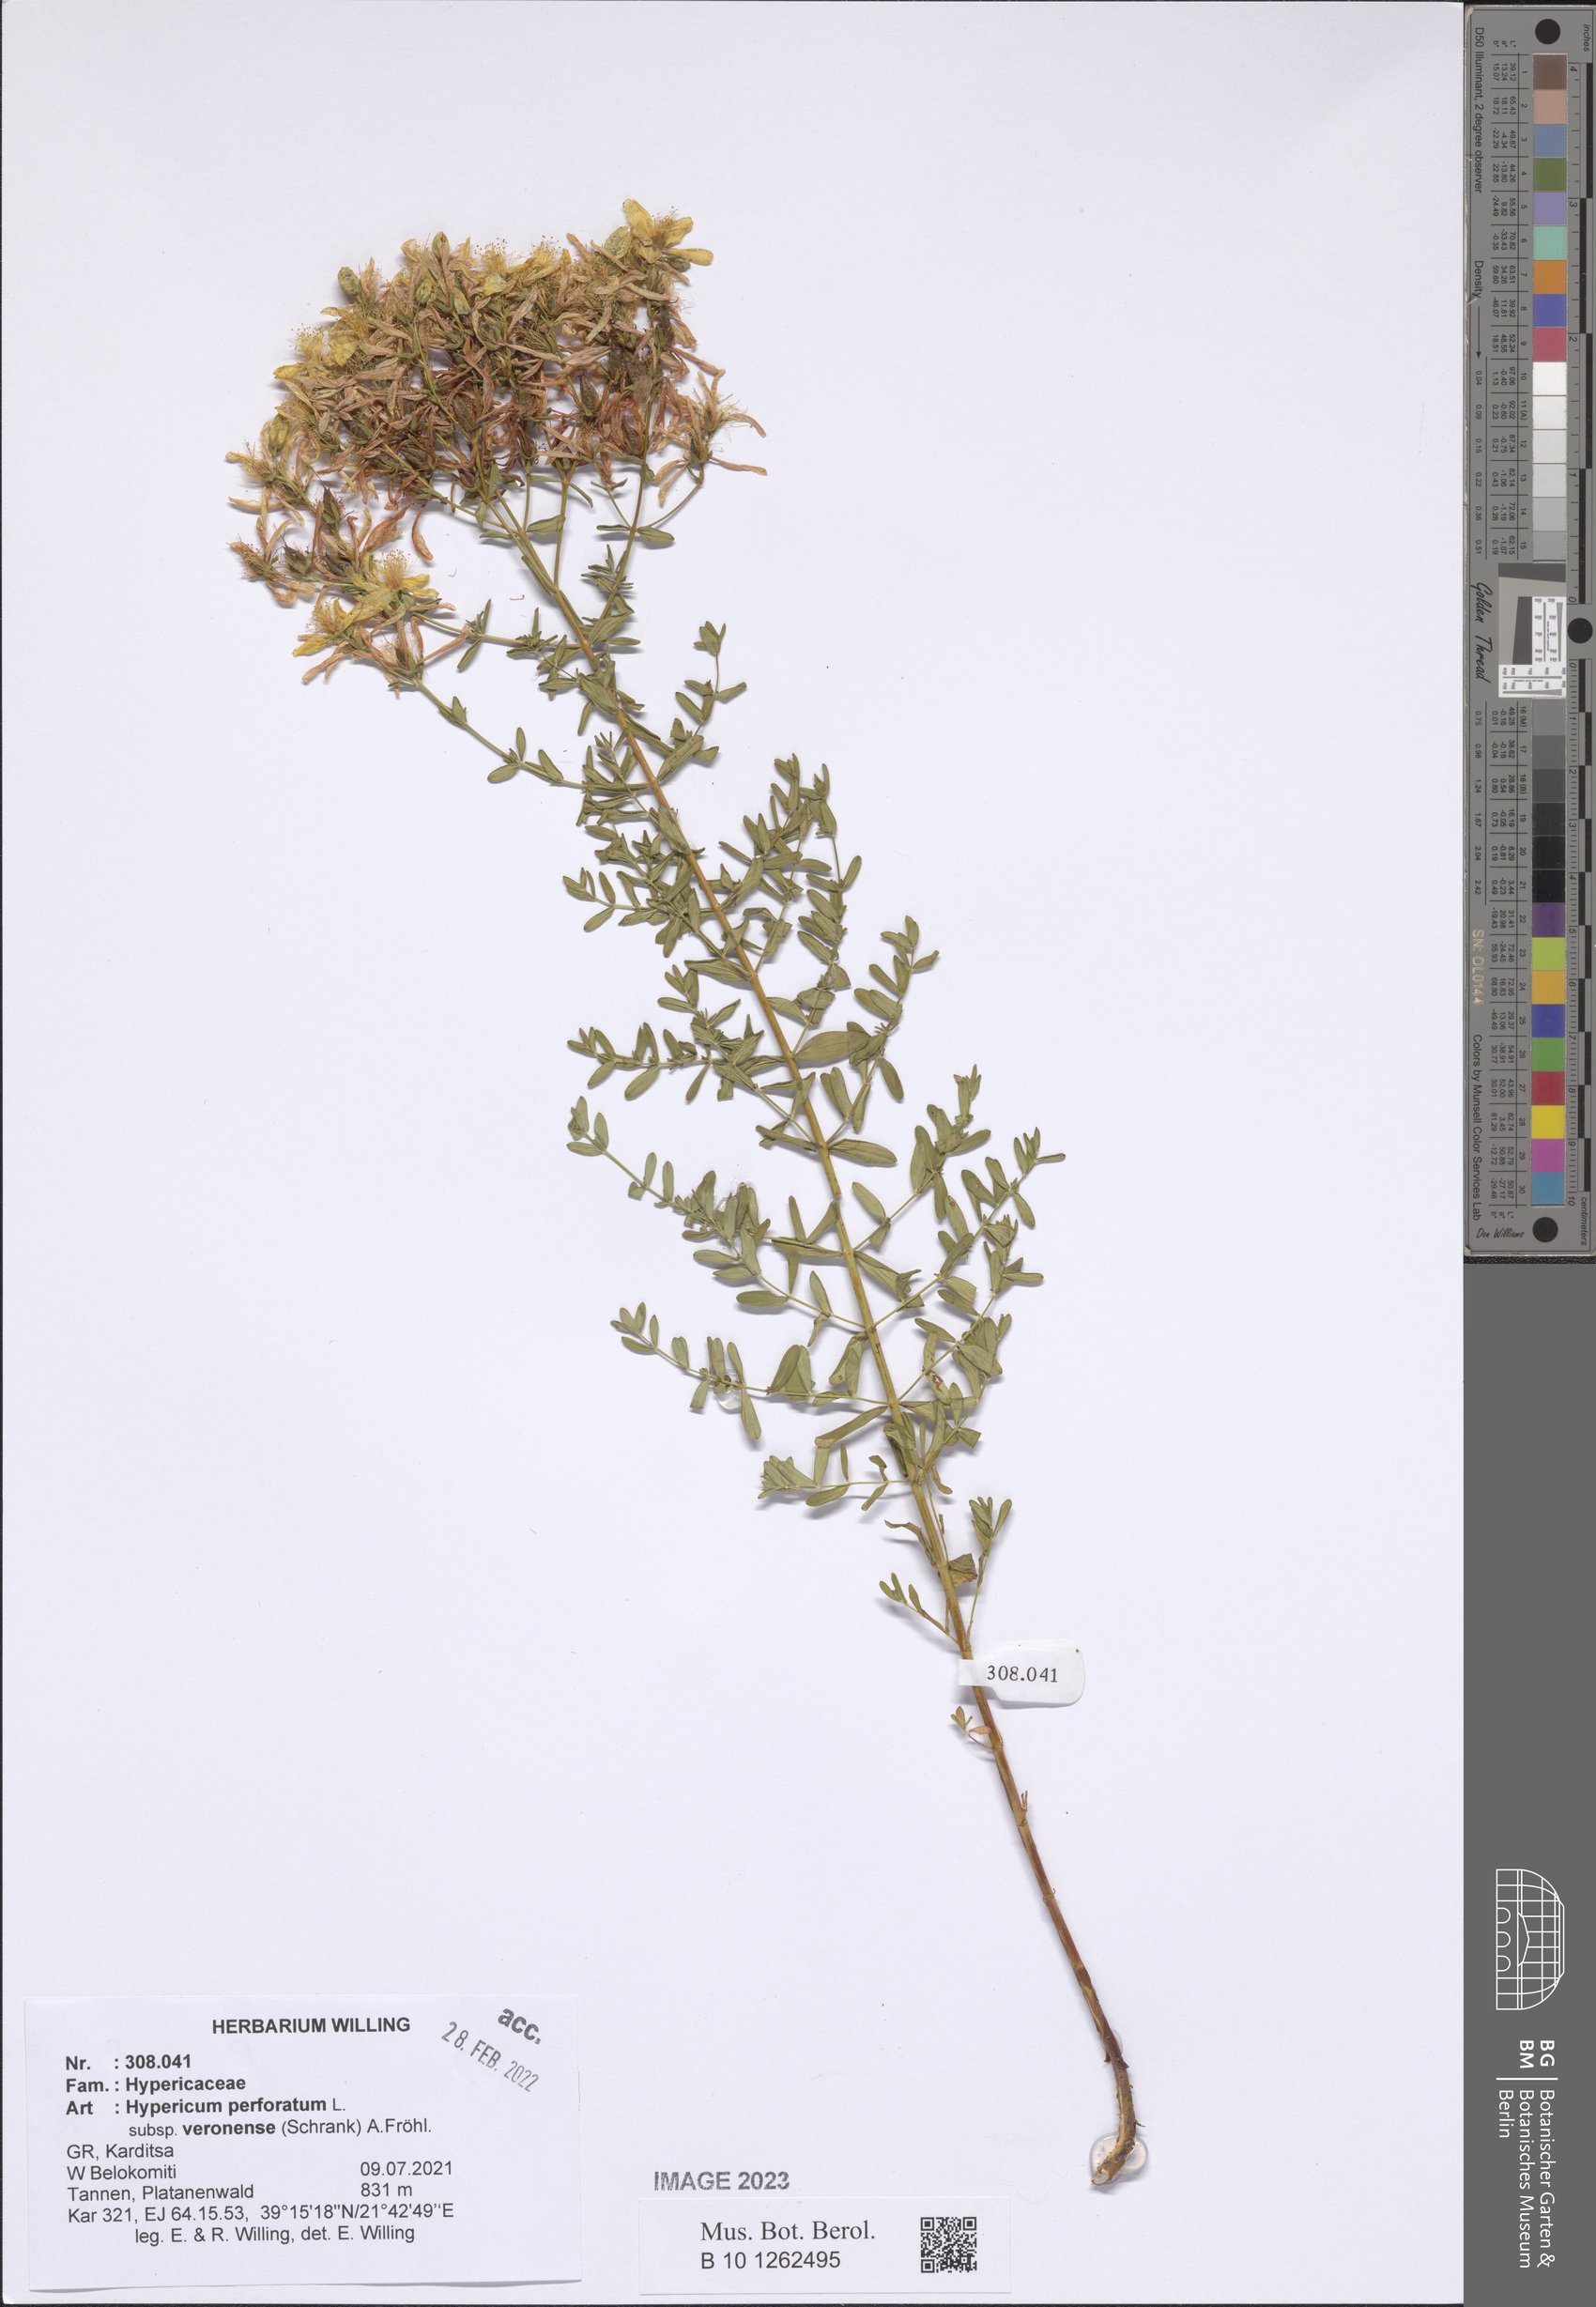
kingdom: Plantae
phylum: Tracheophyta
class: Magnoliopsida
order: Malpighiales
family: Hypericaceae
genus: Hypericum
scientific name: Hypericum veronense
